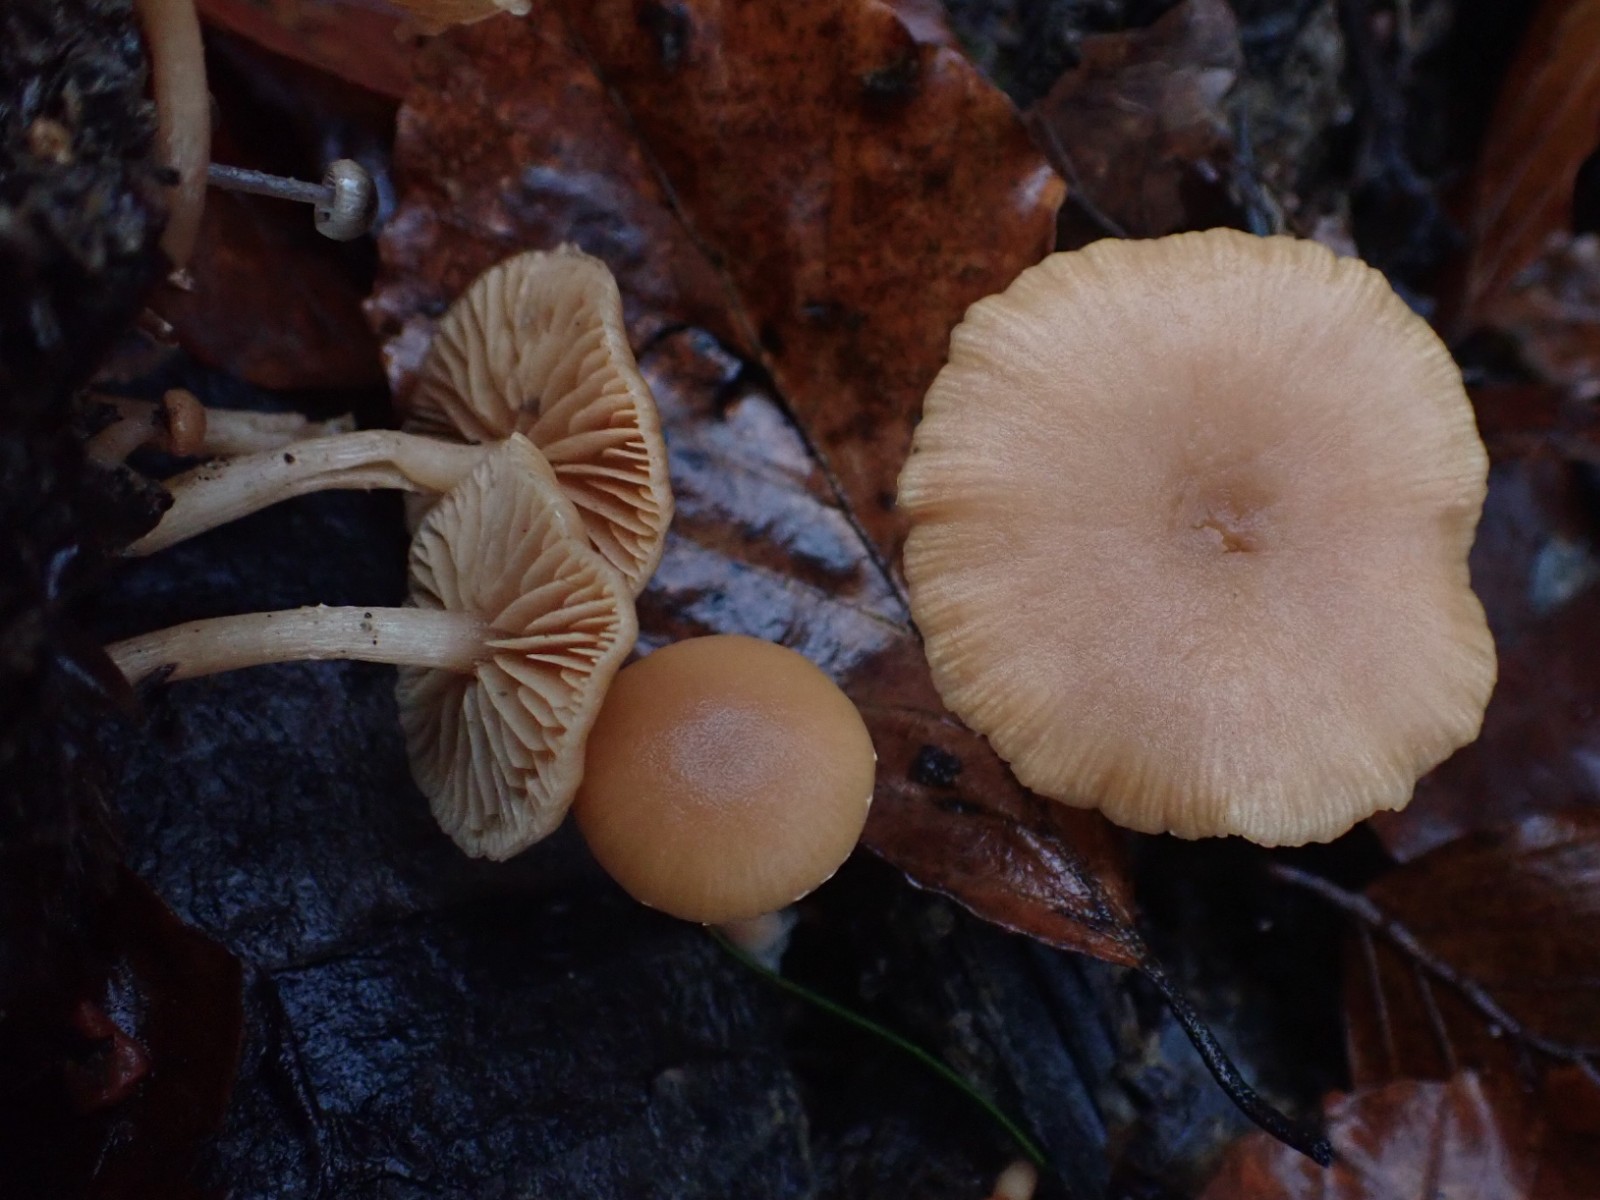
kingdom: Fungi
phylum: Basidiomycota
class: Agaricomycetes
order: Agaricales
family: Tubariaceae
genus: Tubaria
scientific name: Tubaria furfuracea
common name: kliddet fnughat
